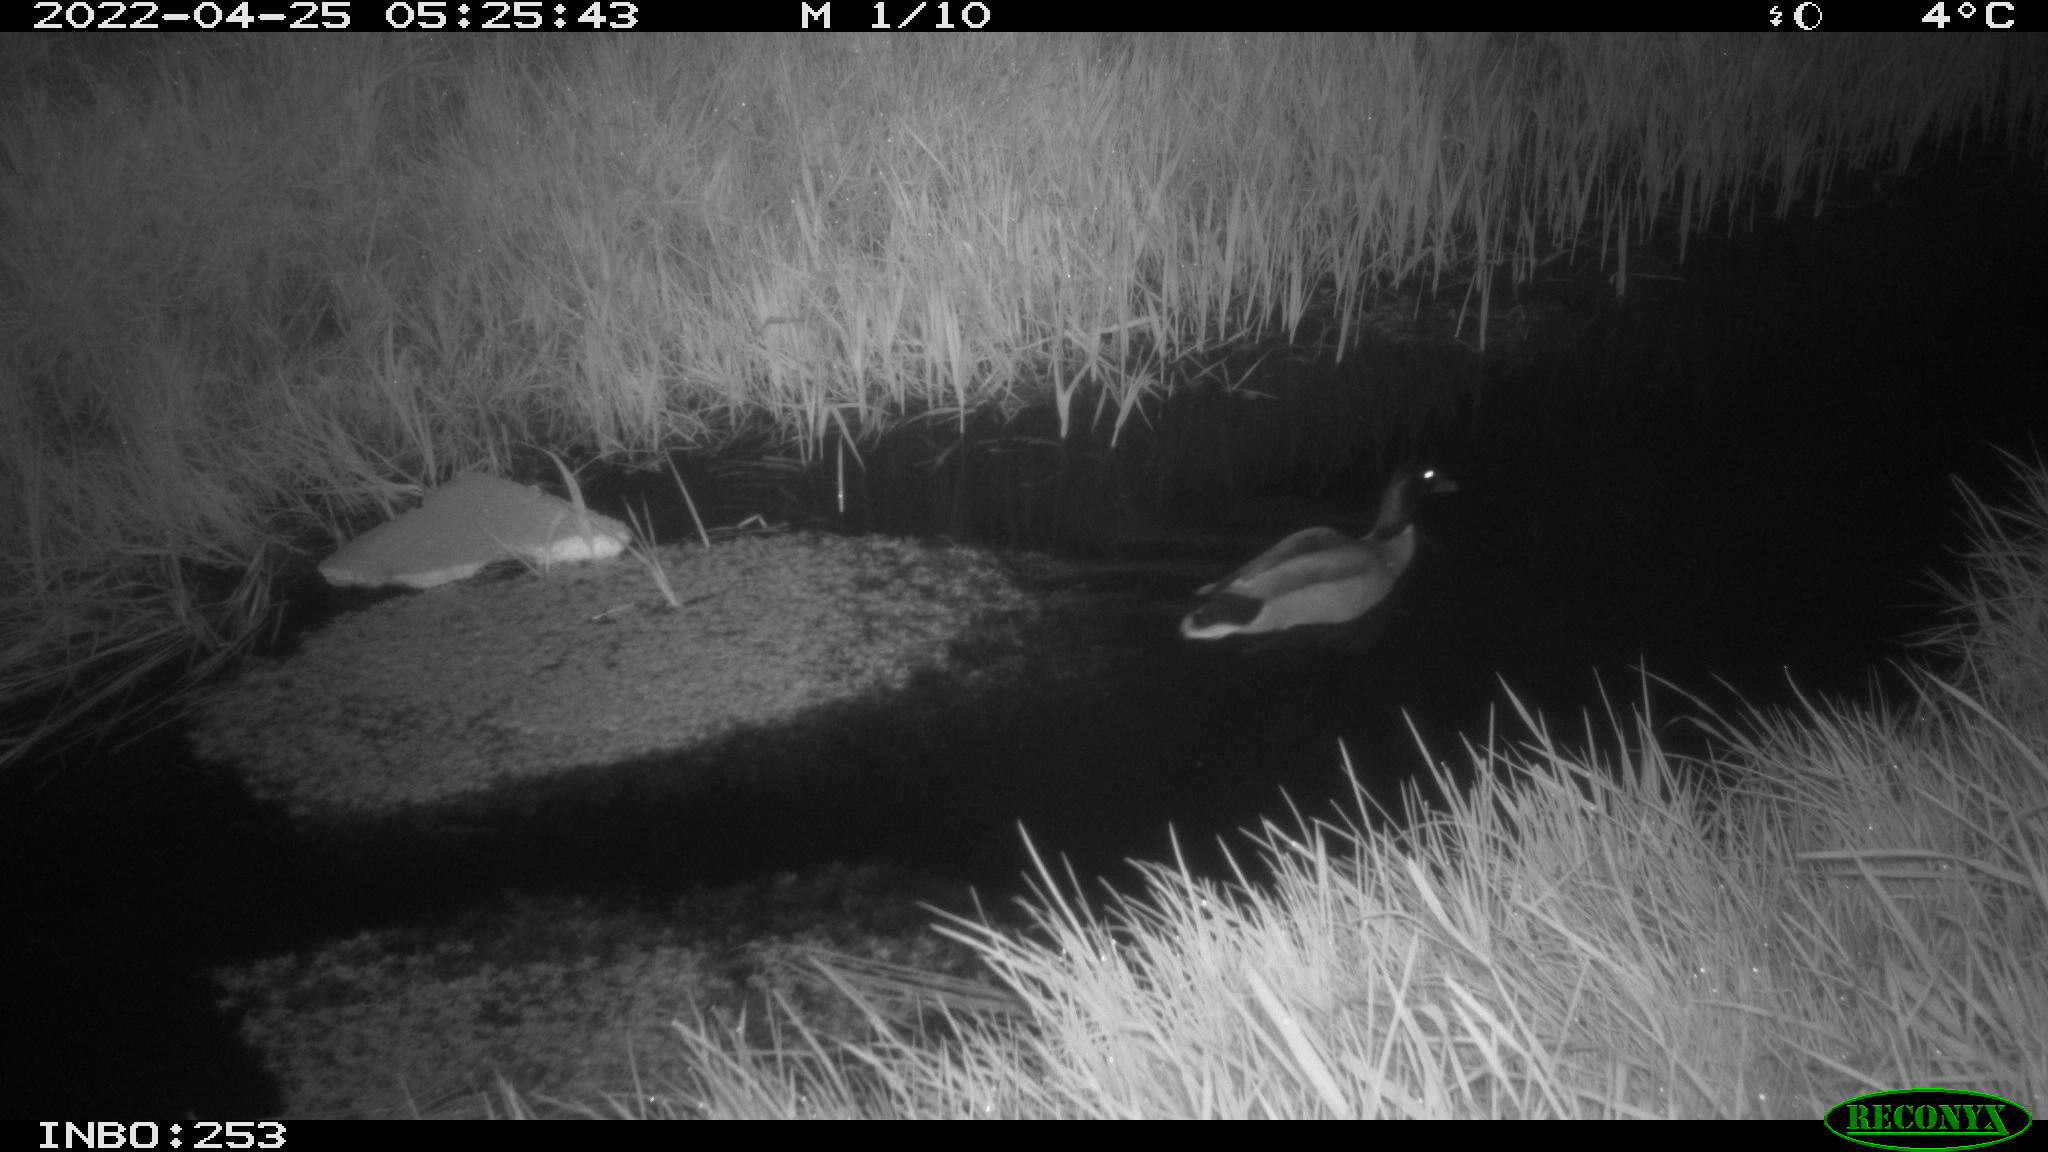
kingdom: Animalia
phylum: Chordata
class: Aves
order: Anseriformes
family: Anatidae
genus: Anas
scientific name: Anas platyrhynchos
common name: Mallard
